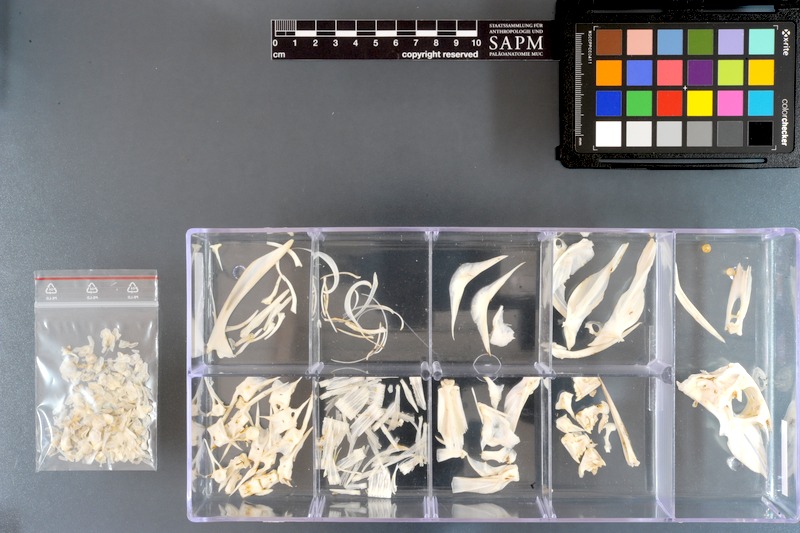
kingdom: Animalia
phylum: Chordata
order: Tetraodontiformes
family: Balistidae
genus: Abalistes
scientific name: Abalistes stellatus
